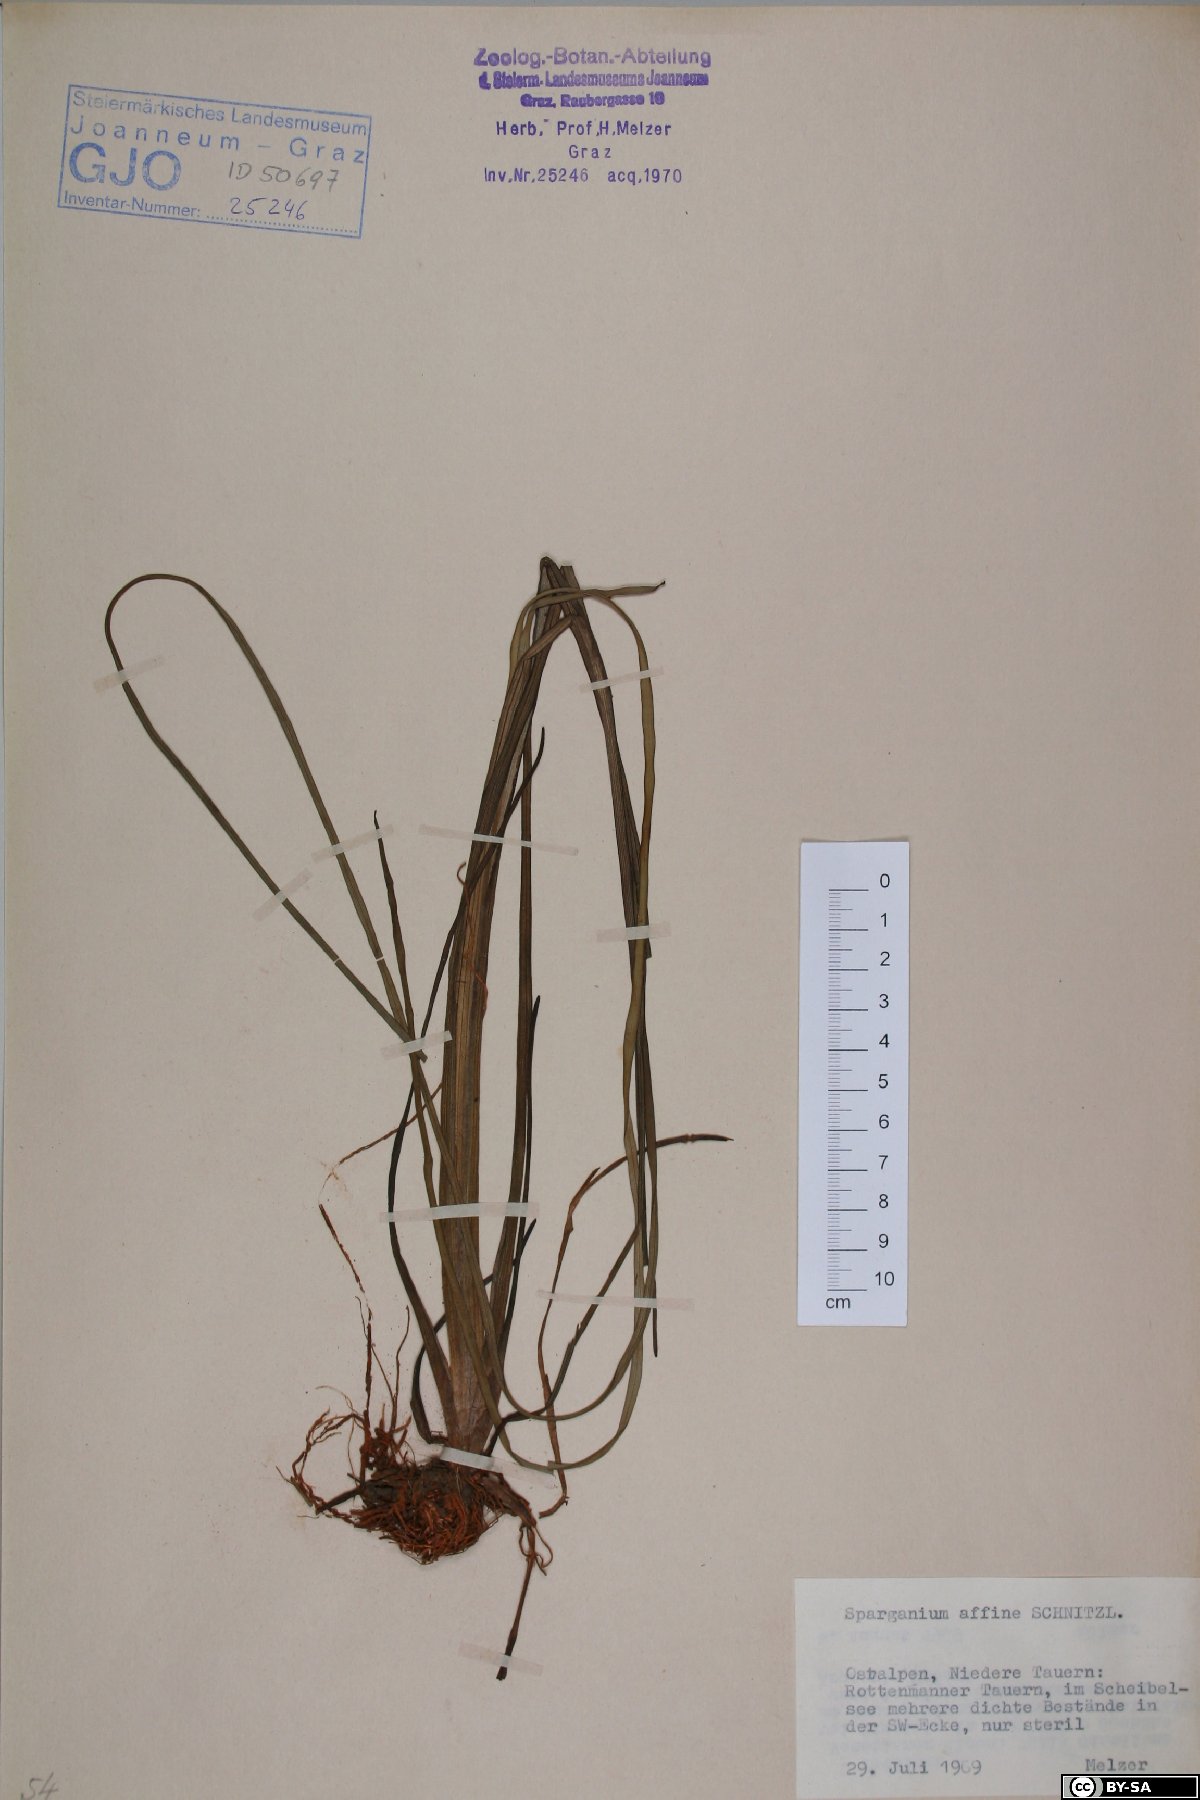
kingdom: Plantae
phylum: Tracheophyta
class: Liliopsida
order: Poales
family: Typhaceae
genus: Sparganium
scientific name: Sparganium angustifolium
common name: Floating bur-reed
